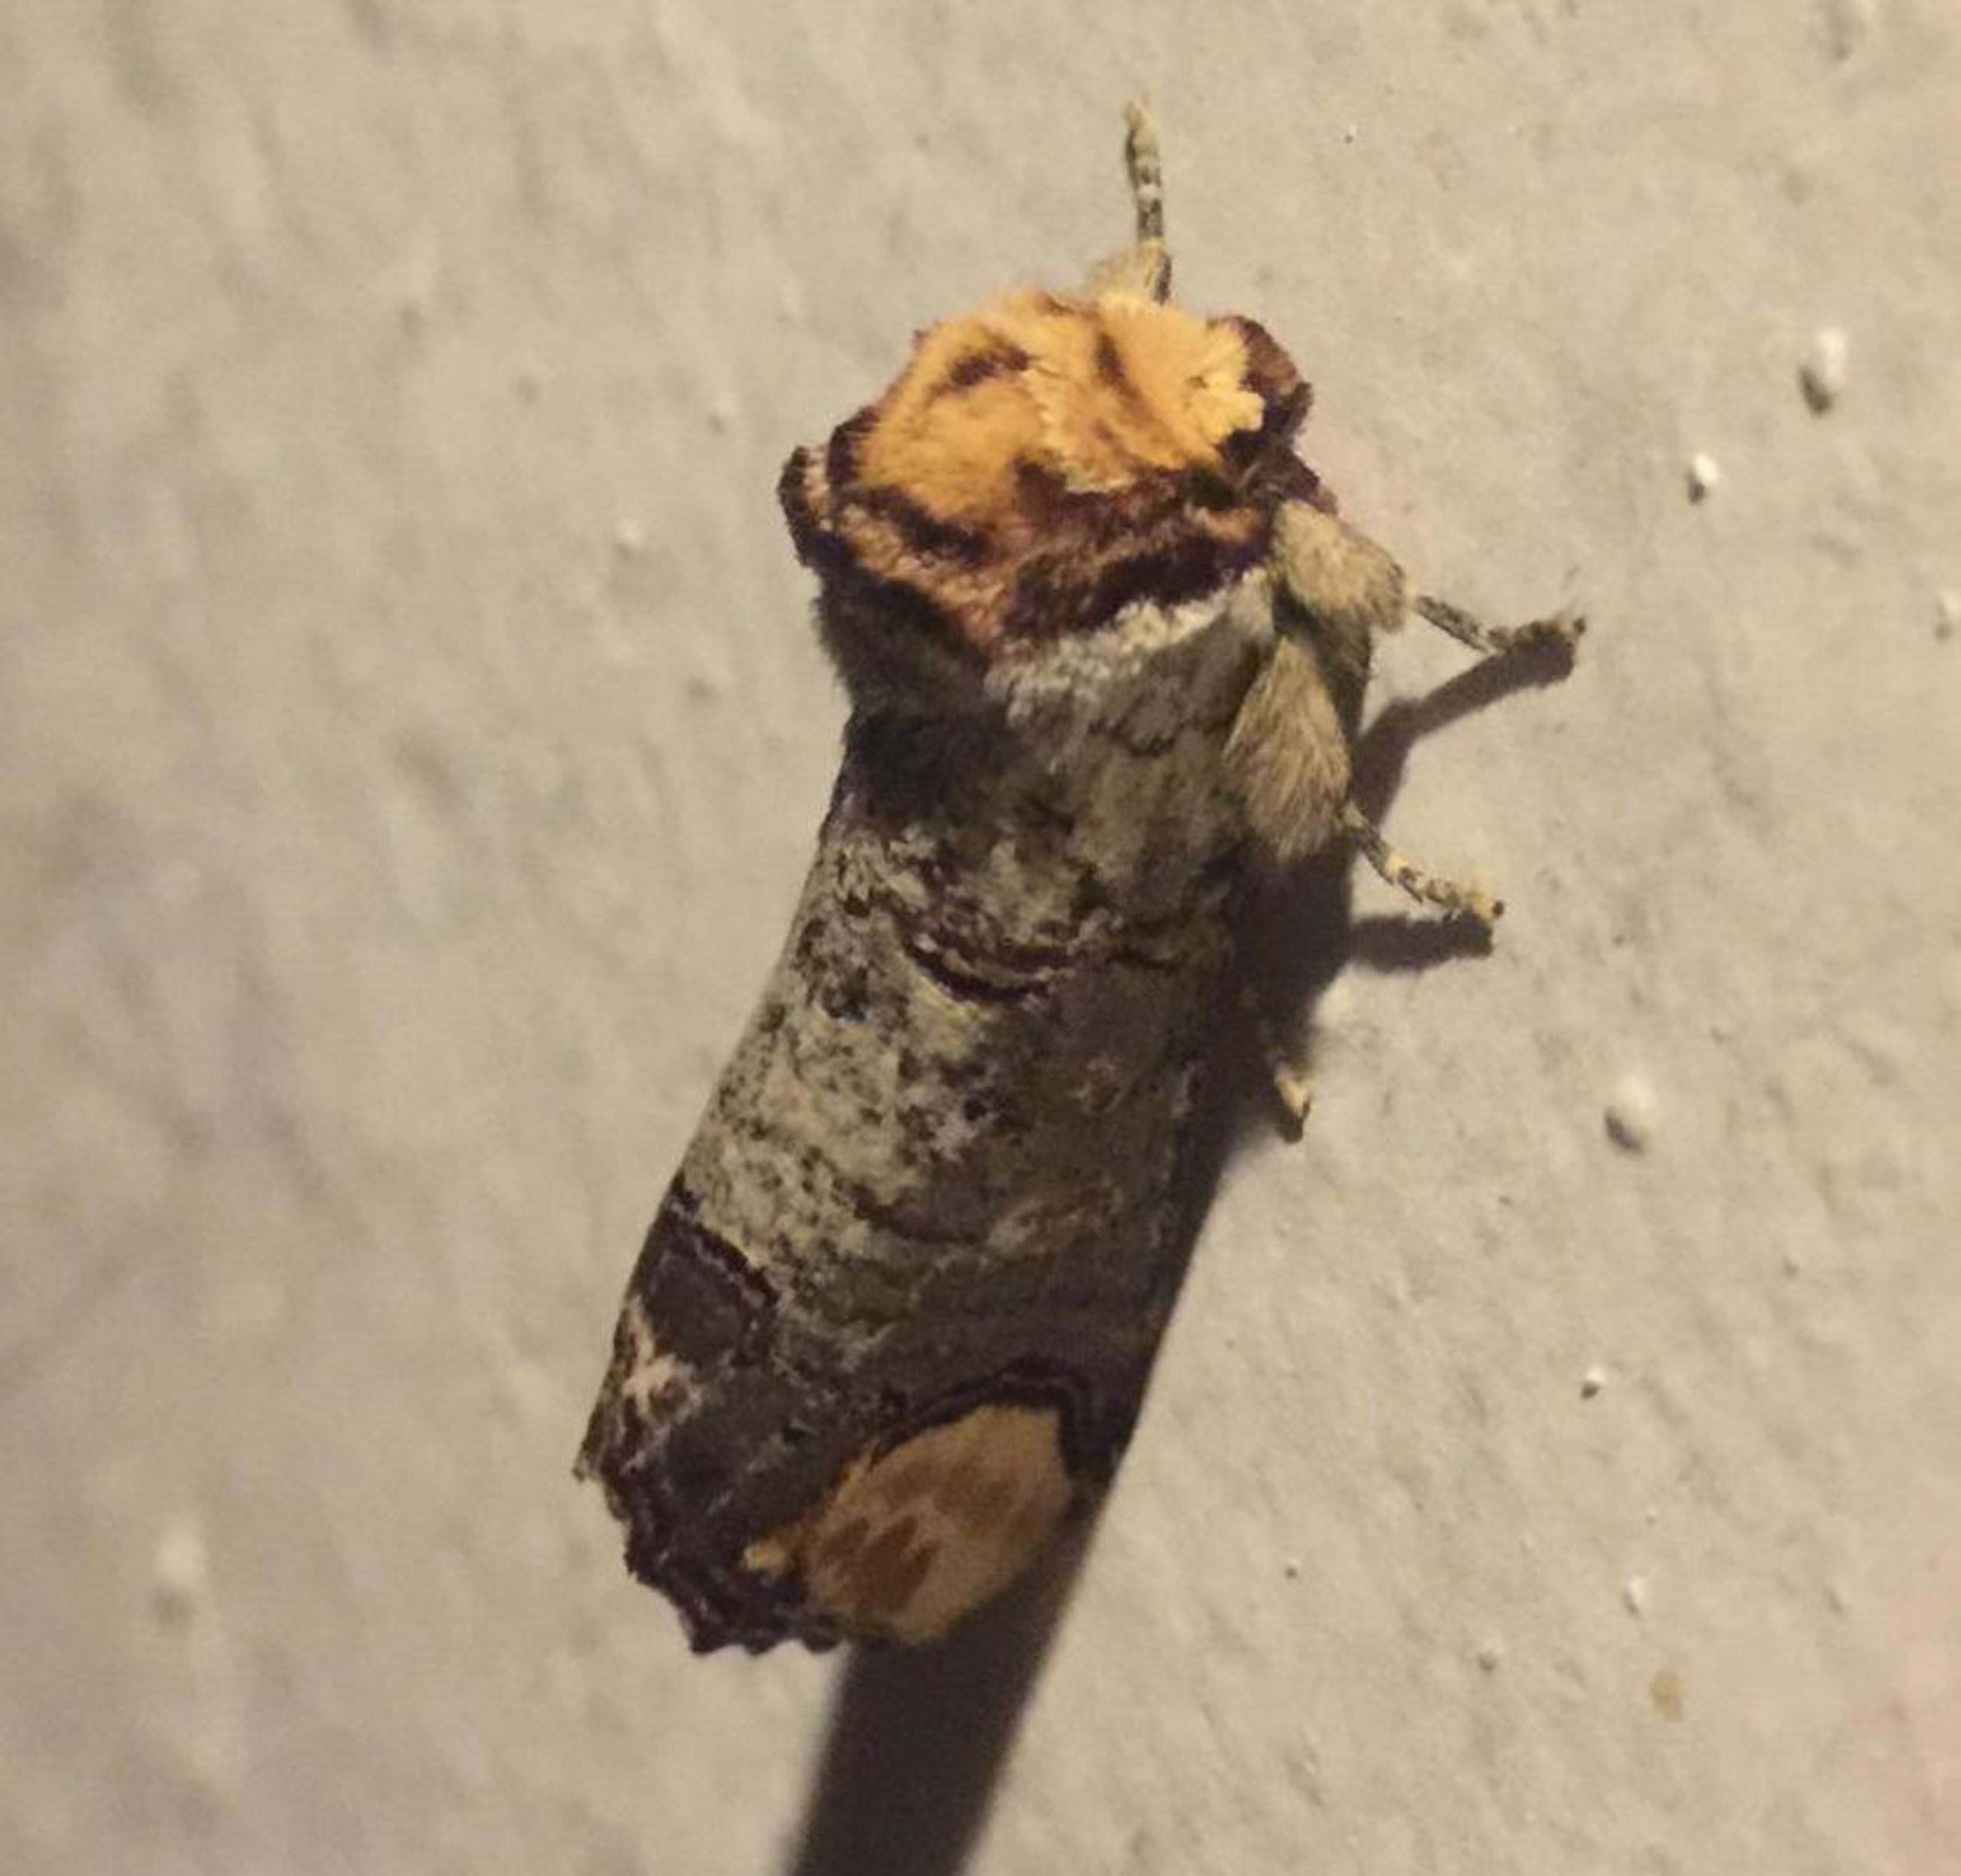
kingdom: Animalia
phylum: Arthropoda
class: Insecta
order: Lepidoptera
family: Notodontidae
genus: Phalera
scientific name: Phalera bucephala
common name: Måneplet
